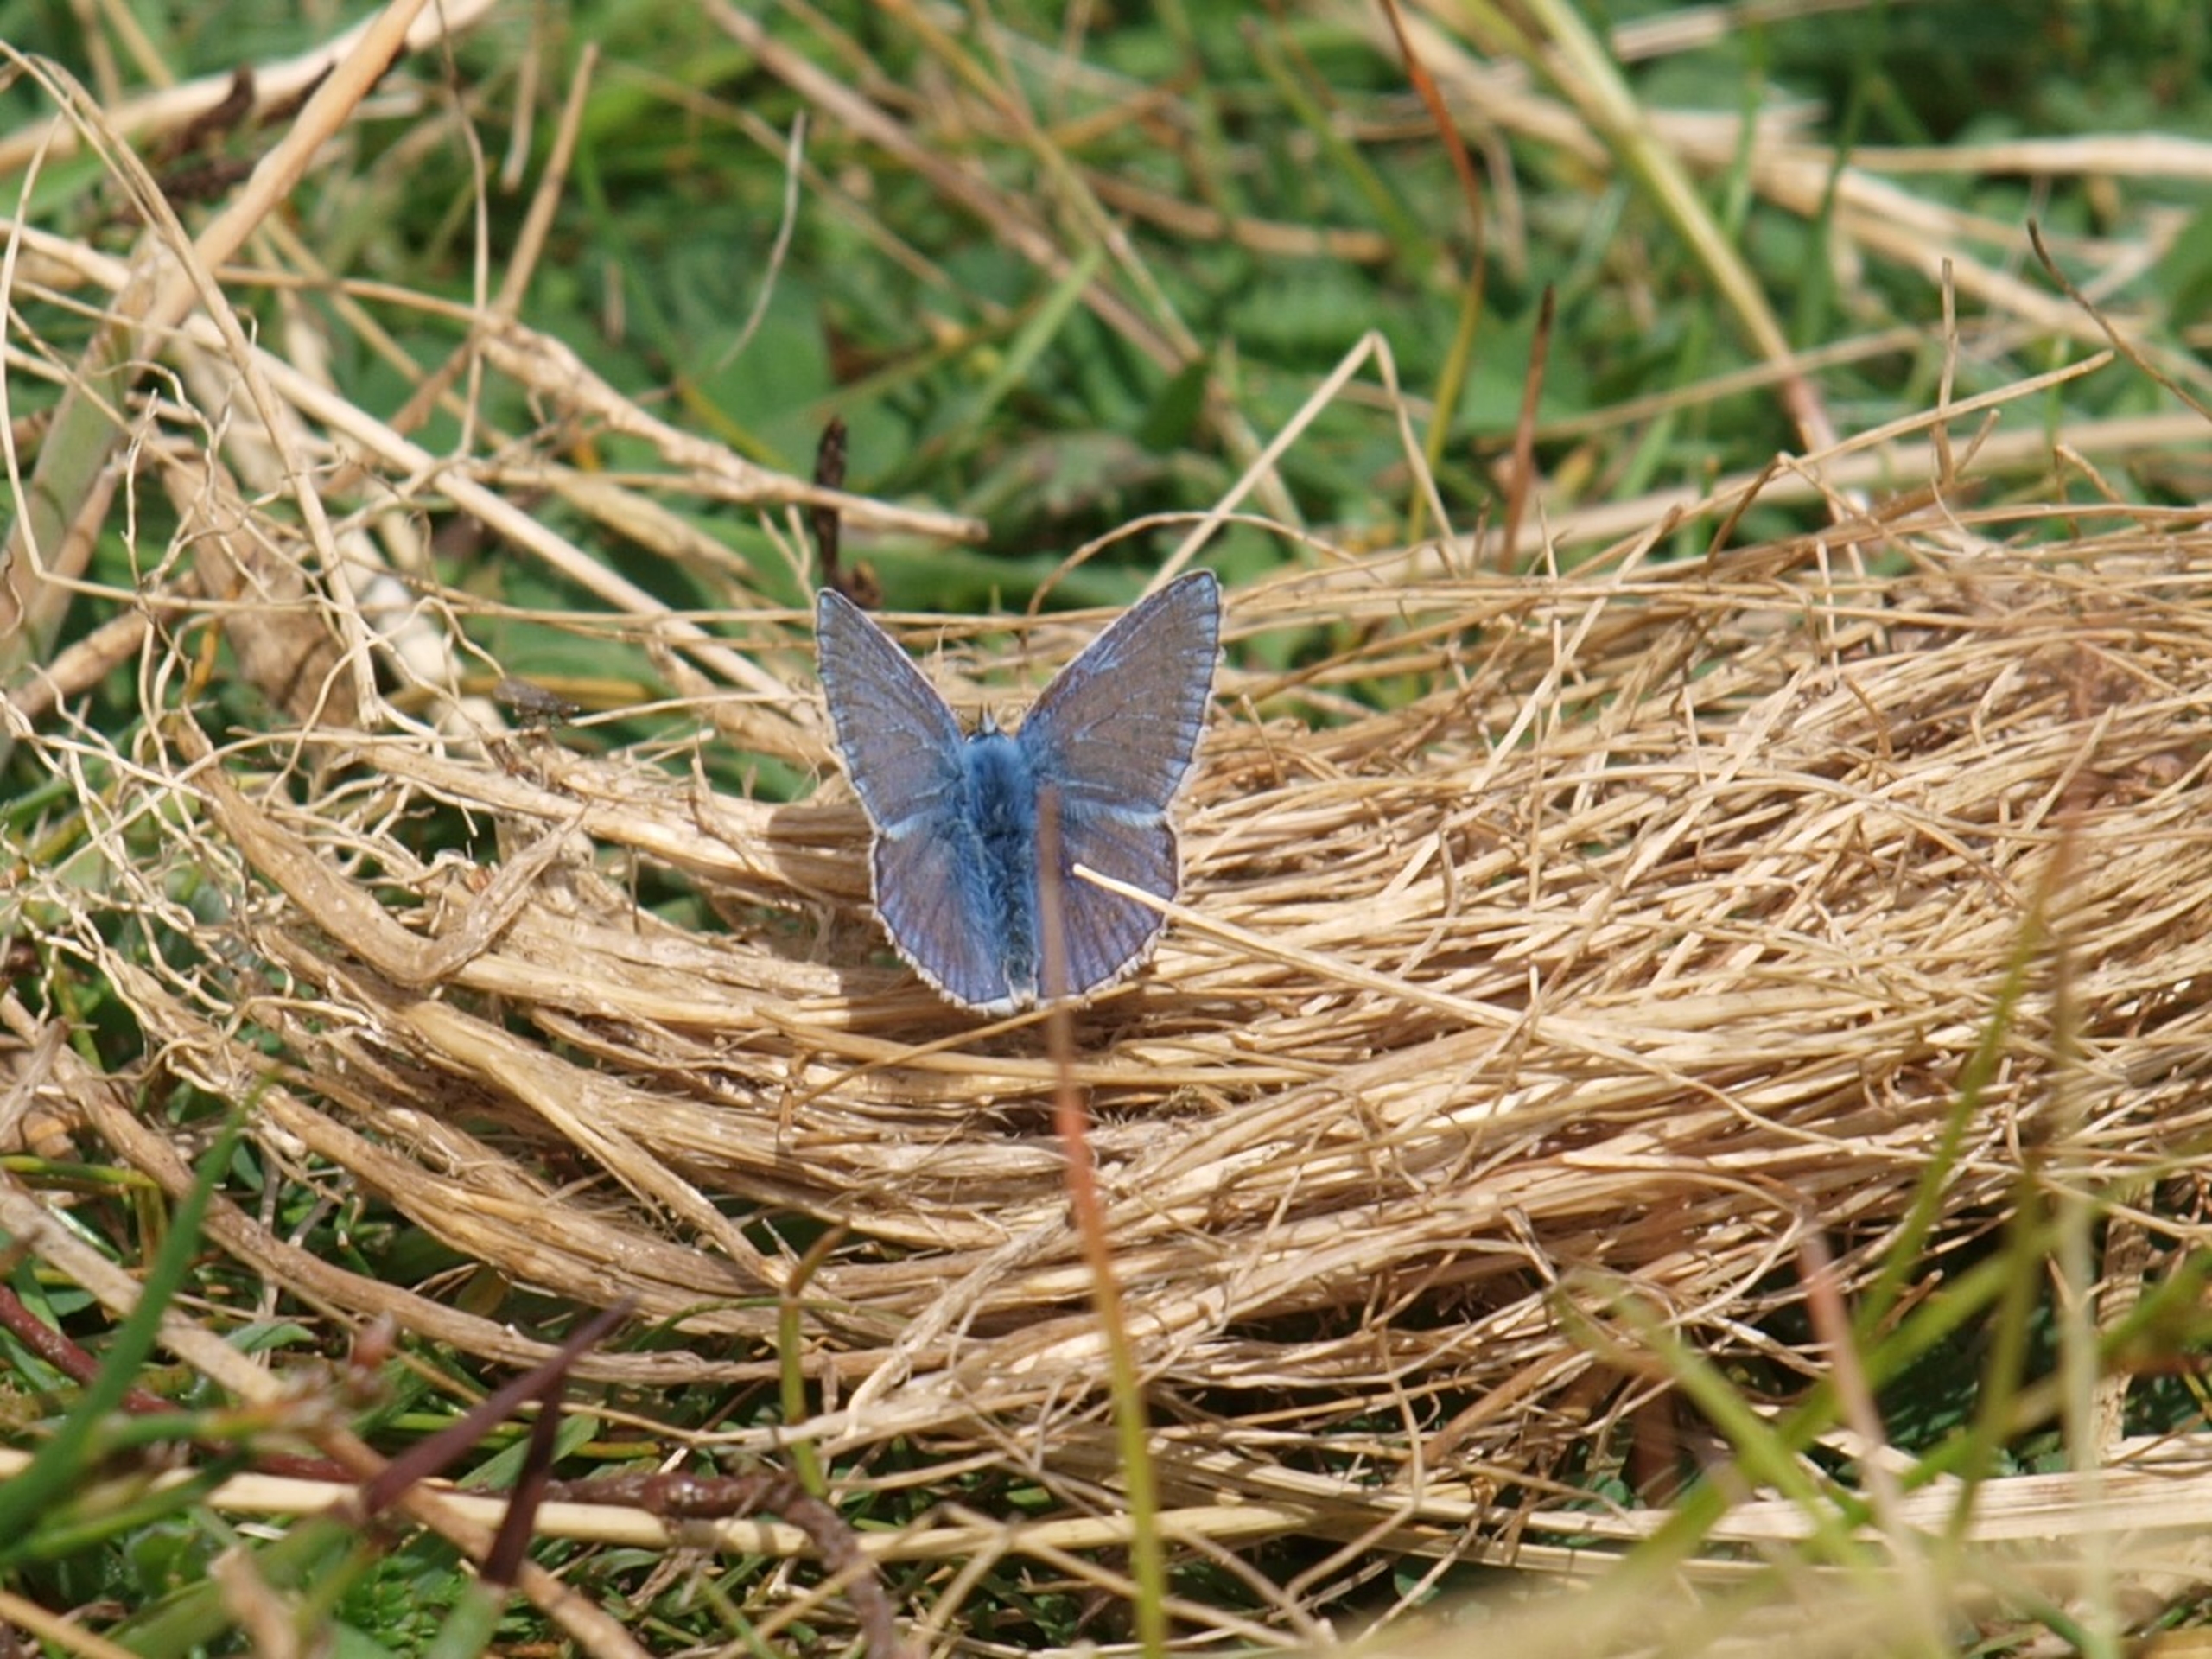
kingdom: Animalia
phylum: Arthropoda
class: Insecta
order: Lepidoptera
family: Lycaenidae
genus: Polyommatus
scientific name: Polyommatus icarus
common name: Almindelig blåfugl
